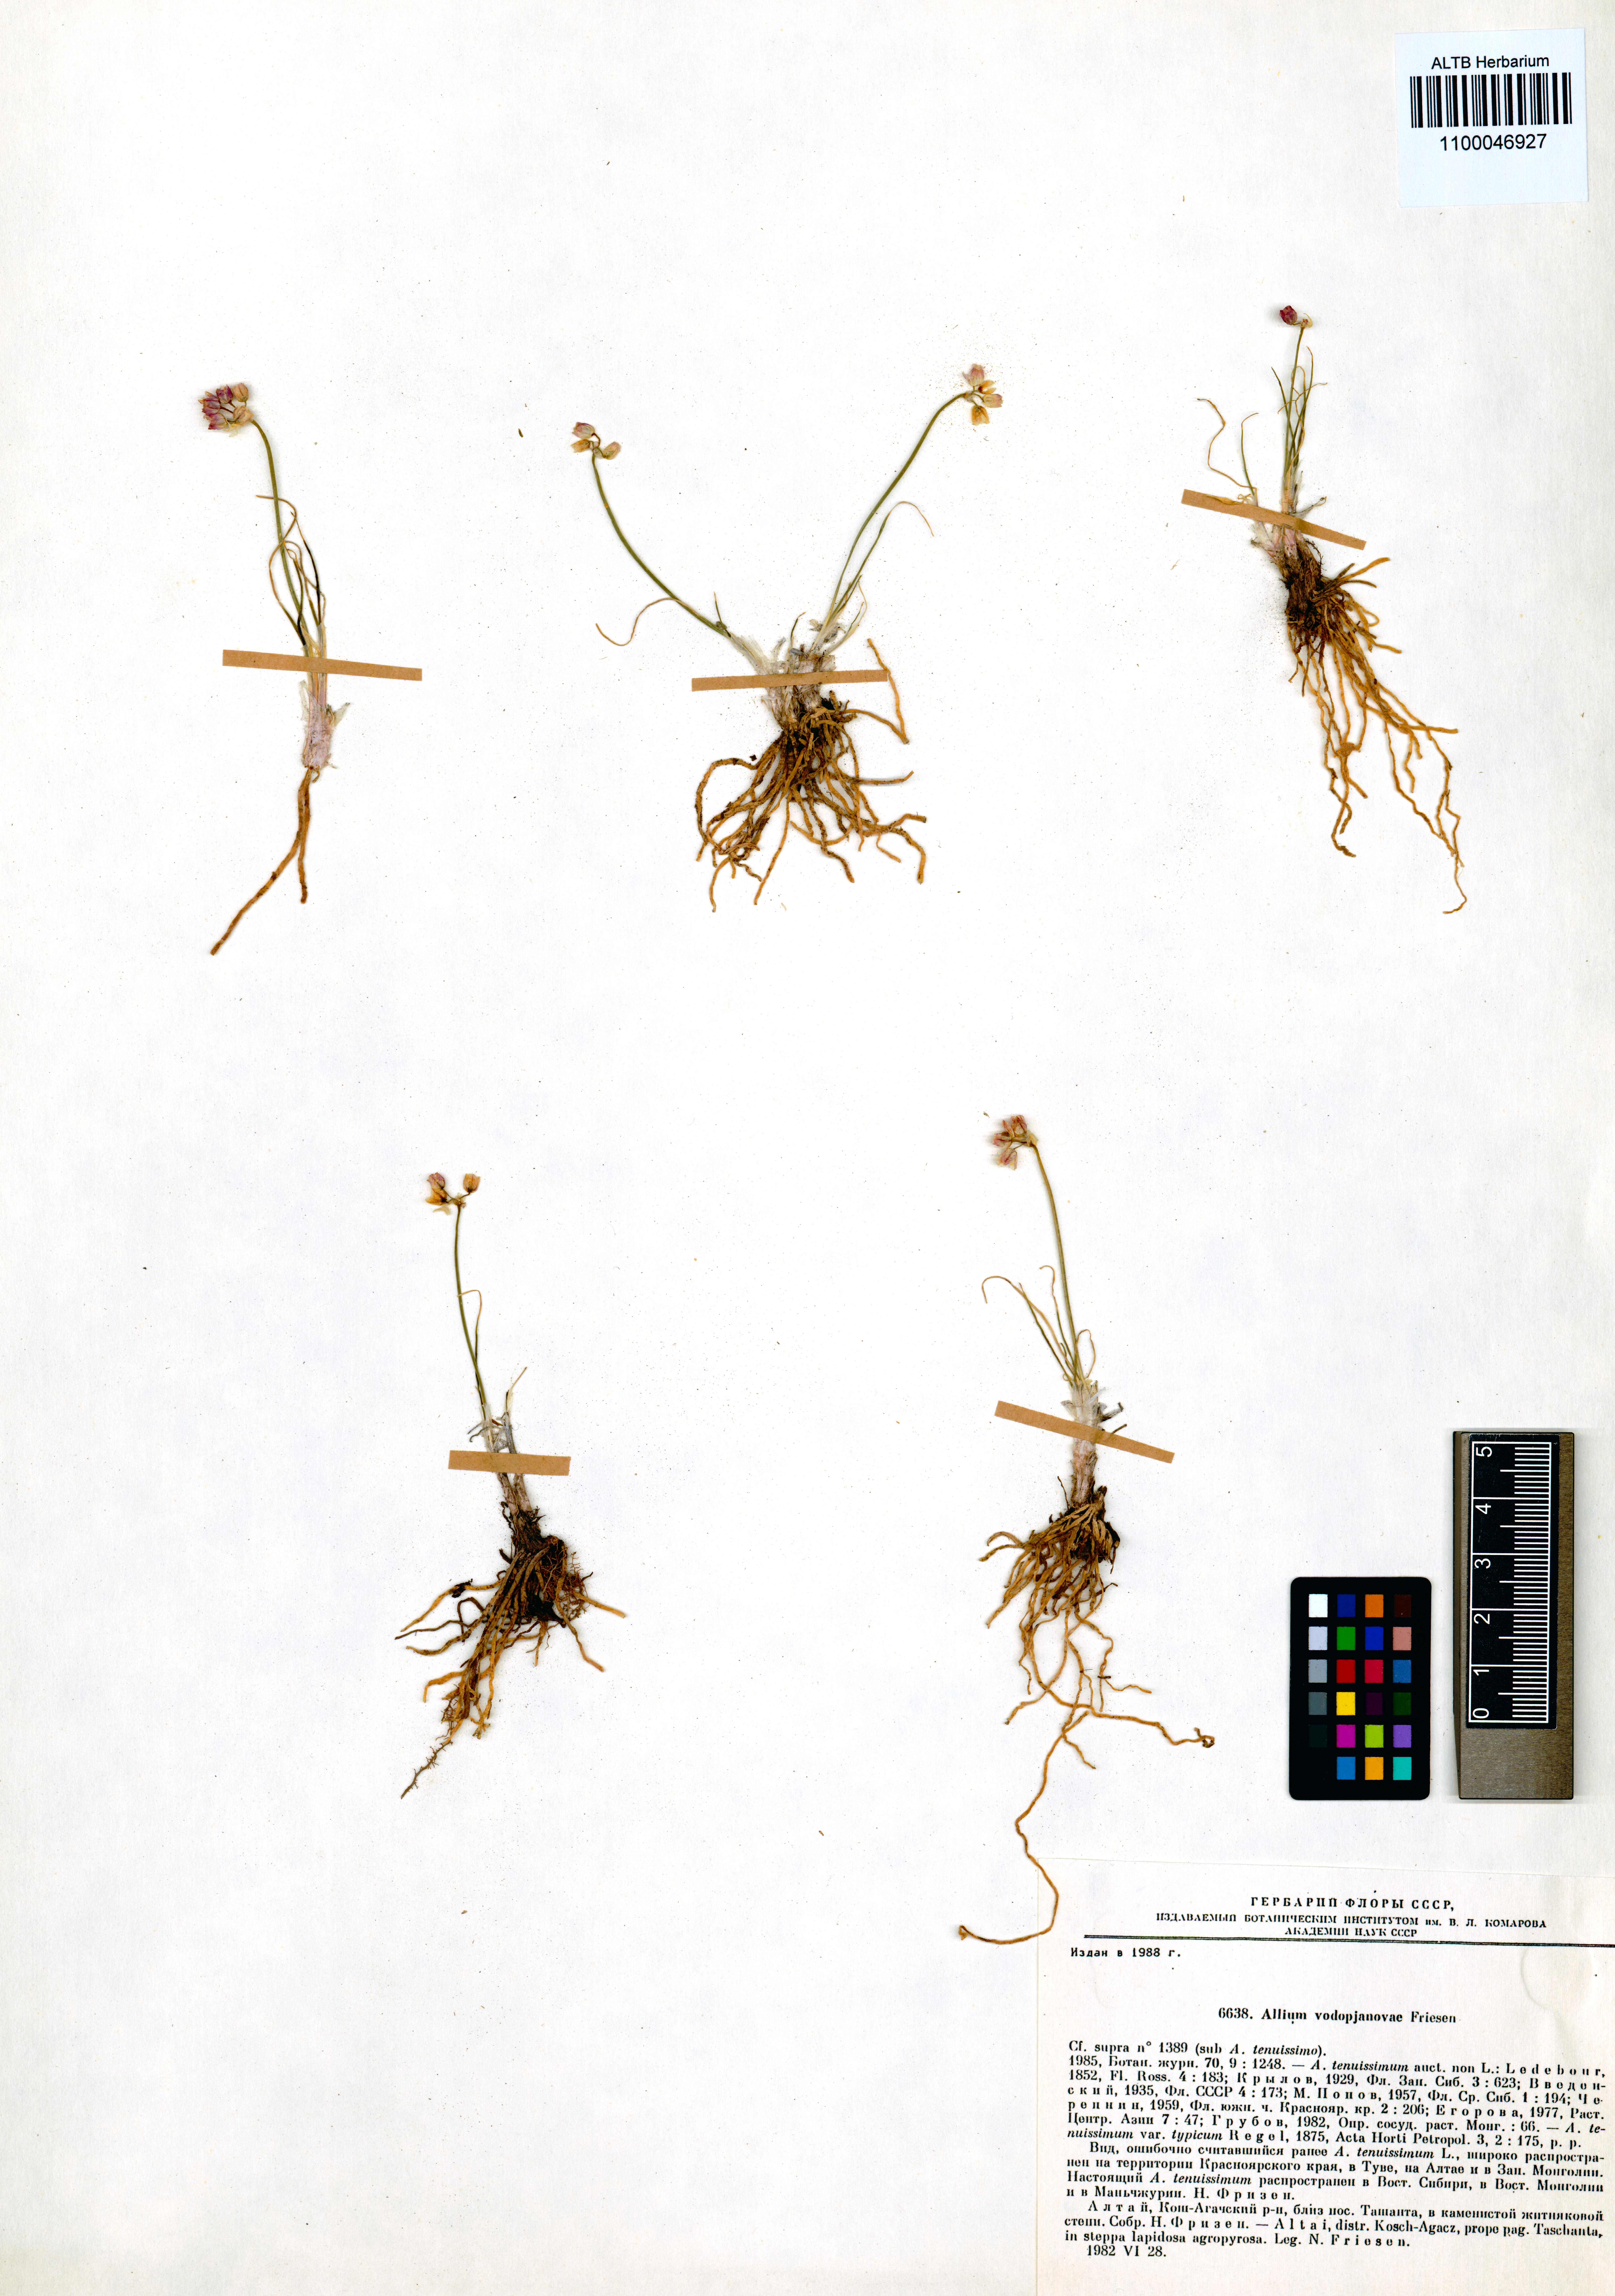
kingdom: Plantae
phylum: Tracheophyta
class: Liliopsida
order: Asparagales
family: Amaryllidaceae
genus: Allium
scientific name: Allium vodopjanovae
